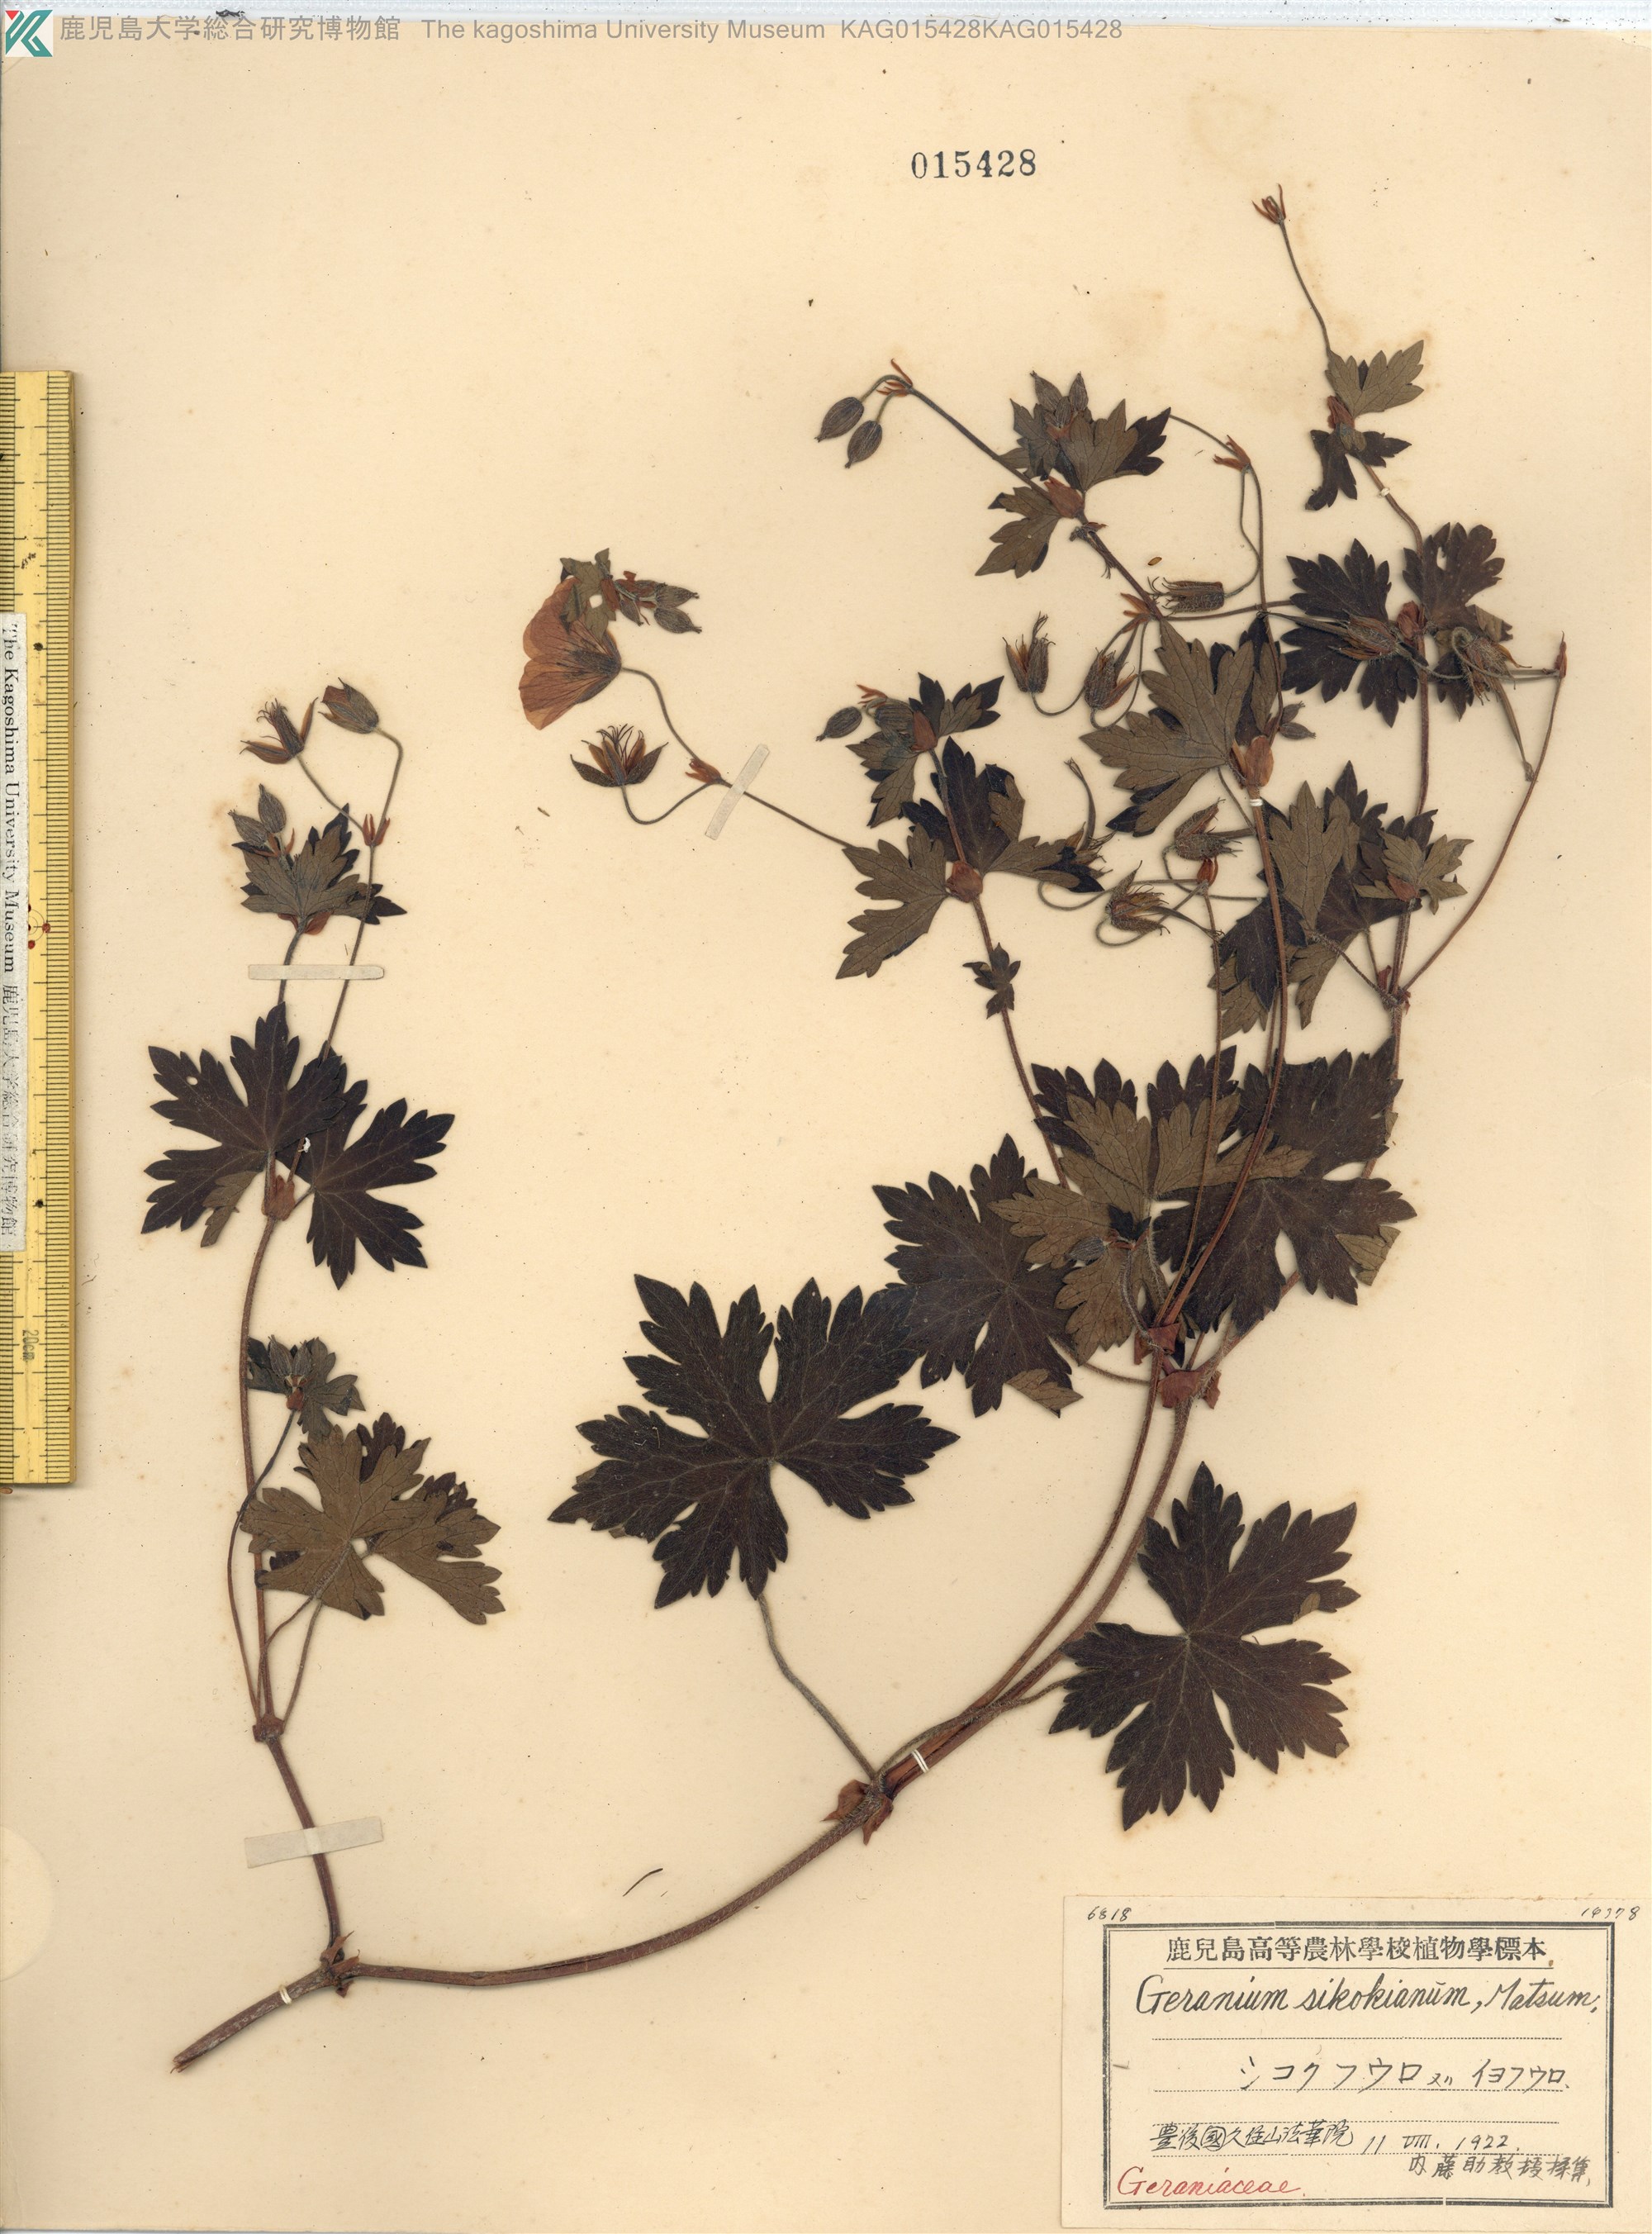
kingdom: Plantae
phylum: Tracheophyta
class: Magnoliopsida
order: Geraniales
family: Geraniaceae
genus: Geranium
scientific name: Geranium shikokianum
